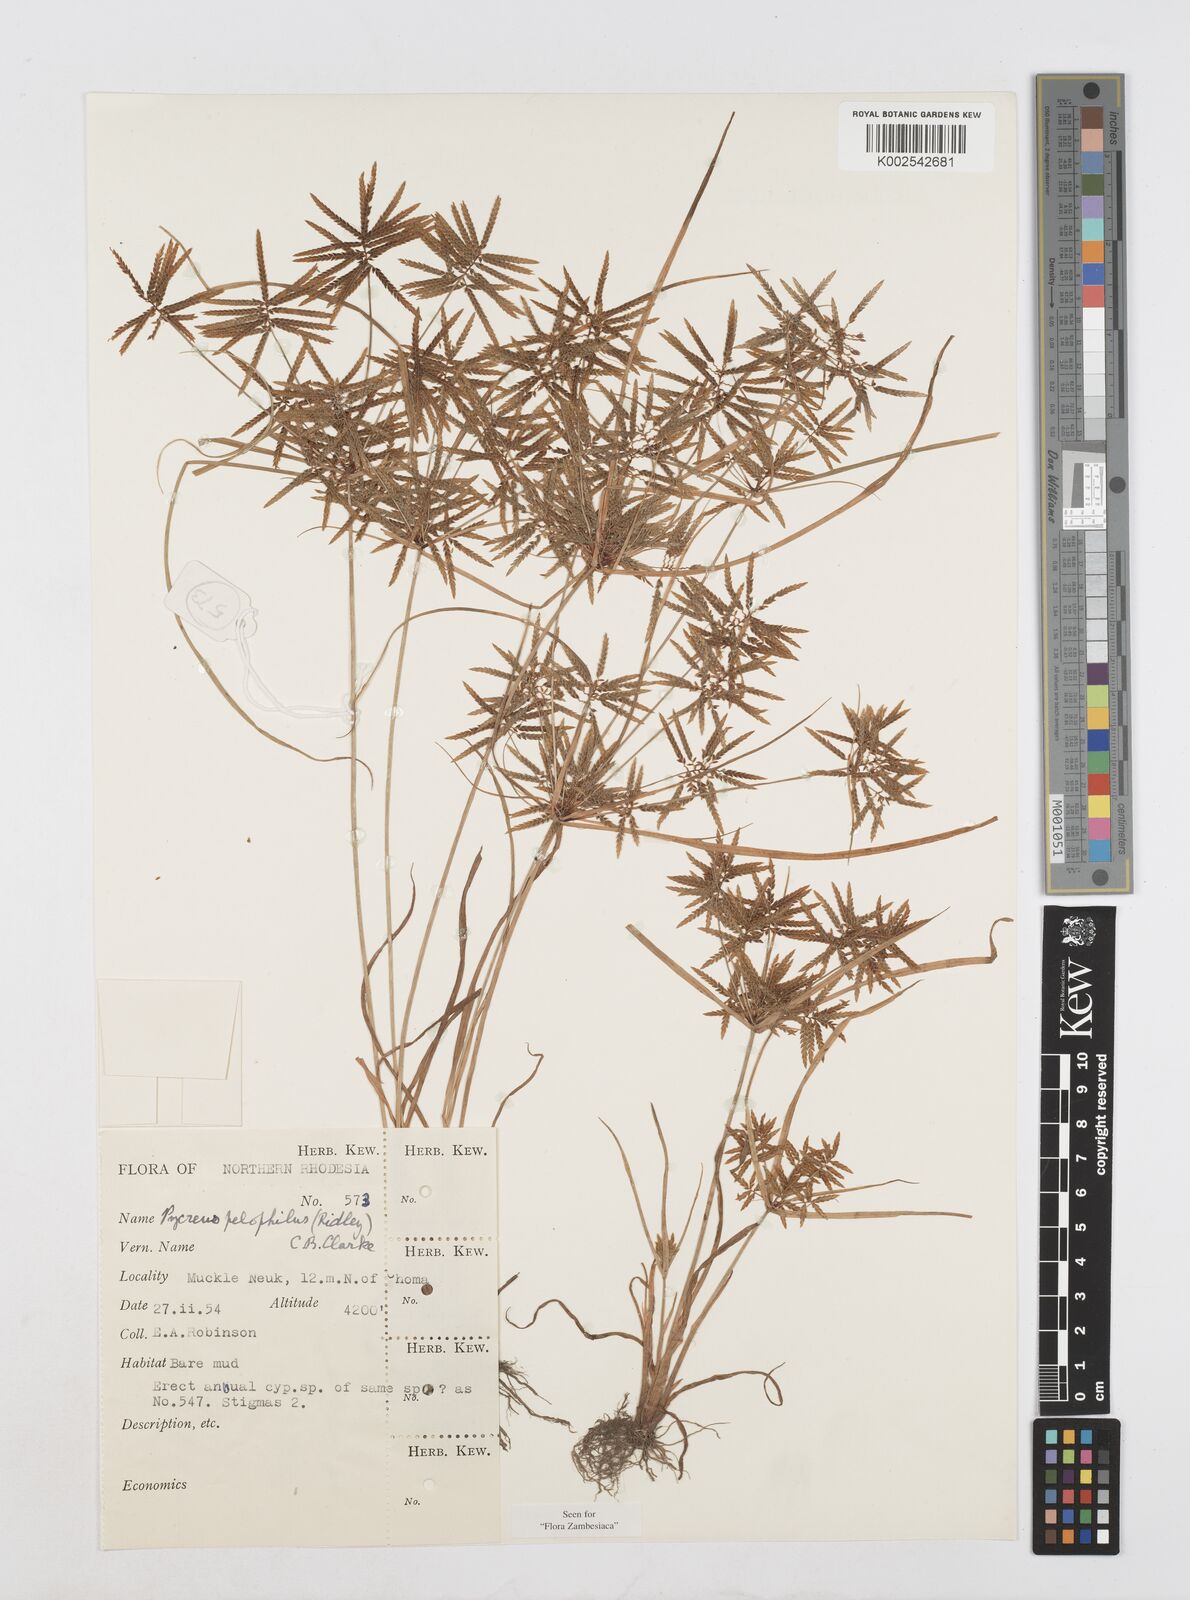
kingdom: Plantae
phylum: Tracheophyta
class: Liliopsida
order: Poales
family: Cyperaceae
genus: Cyperus
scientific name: Cyperus pelophilus
